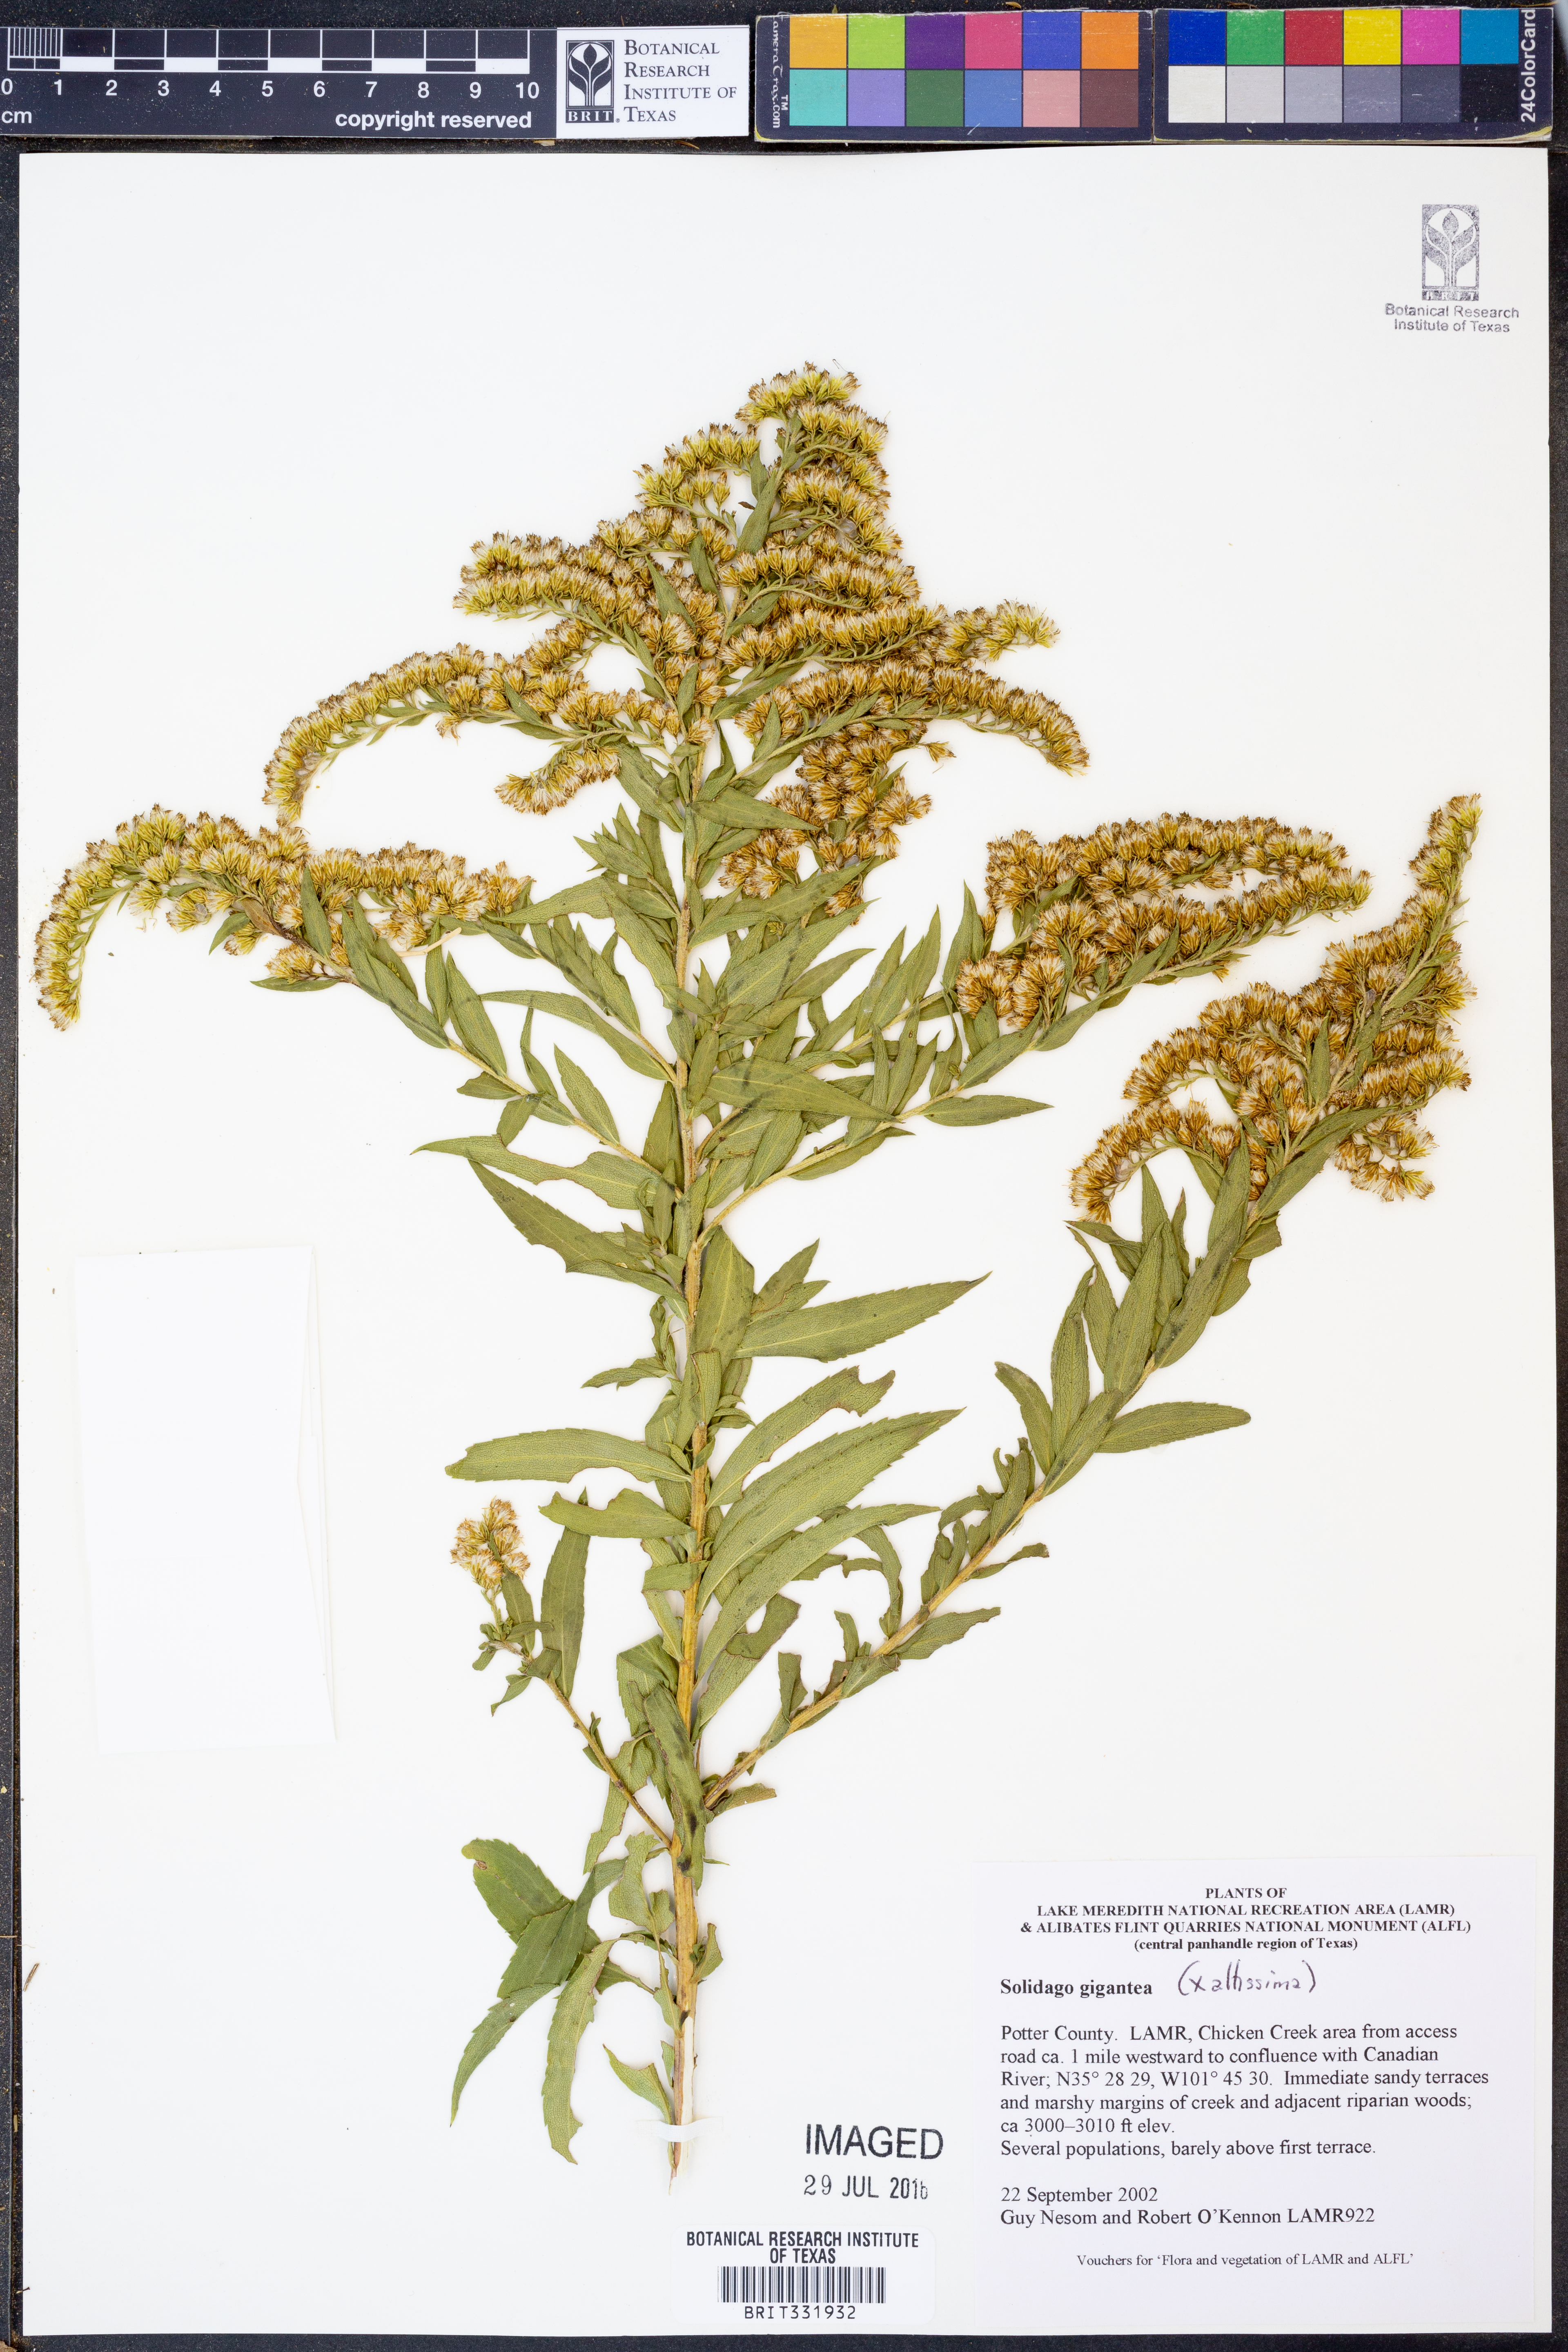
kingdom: Plantae
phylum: Tracheophyta
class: Magnoliopsida
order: Asterales
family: Asteraceae
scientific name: Asteraceae
